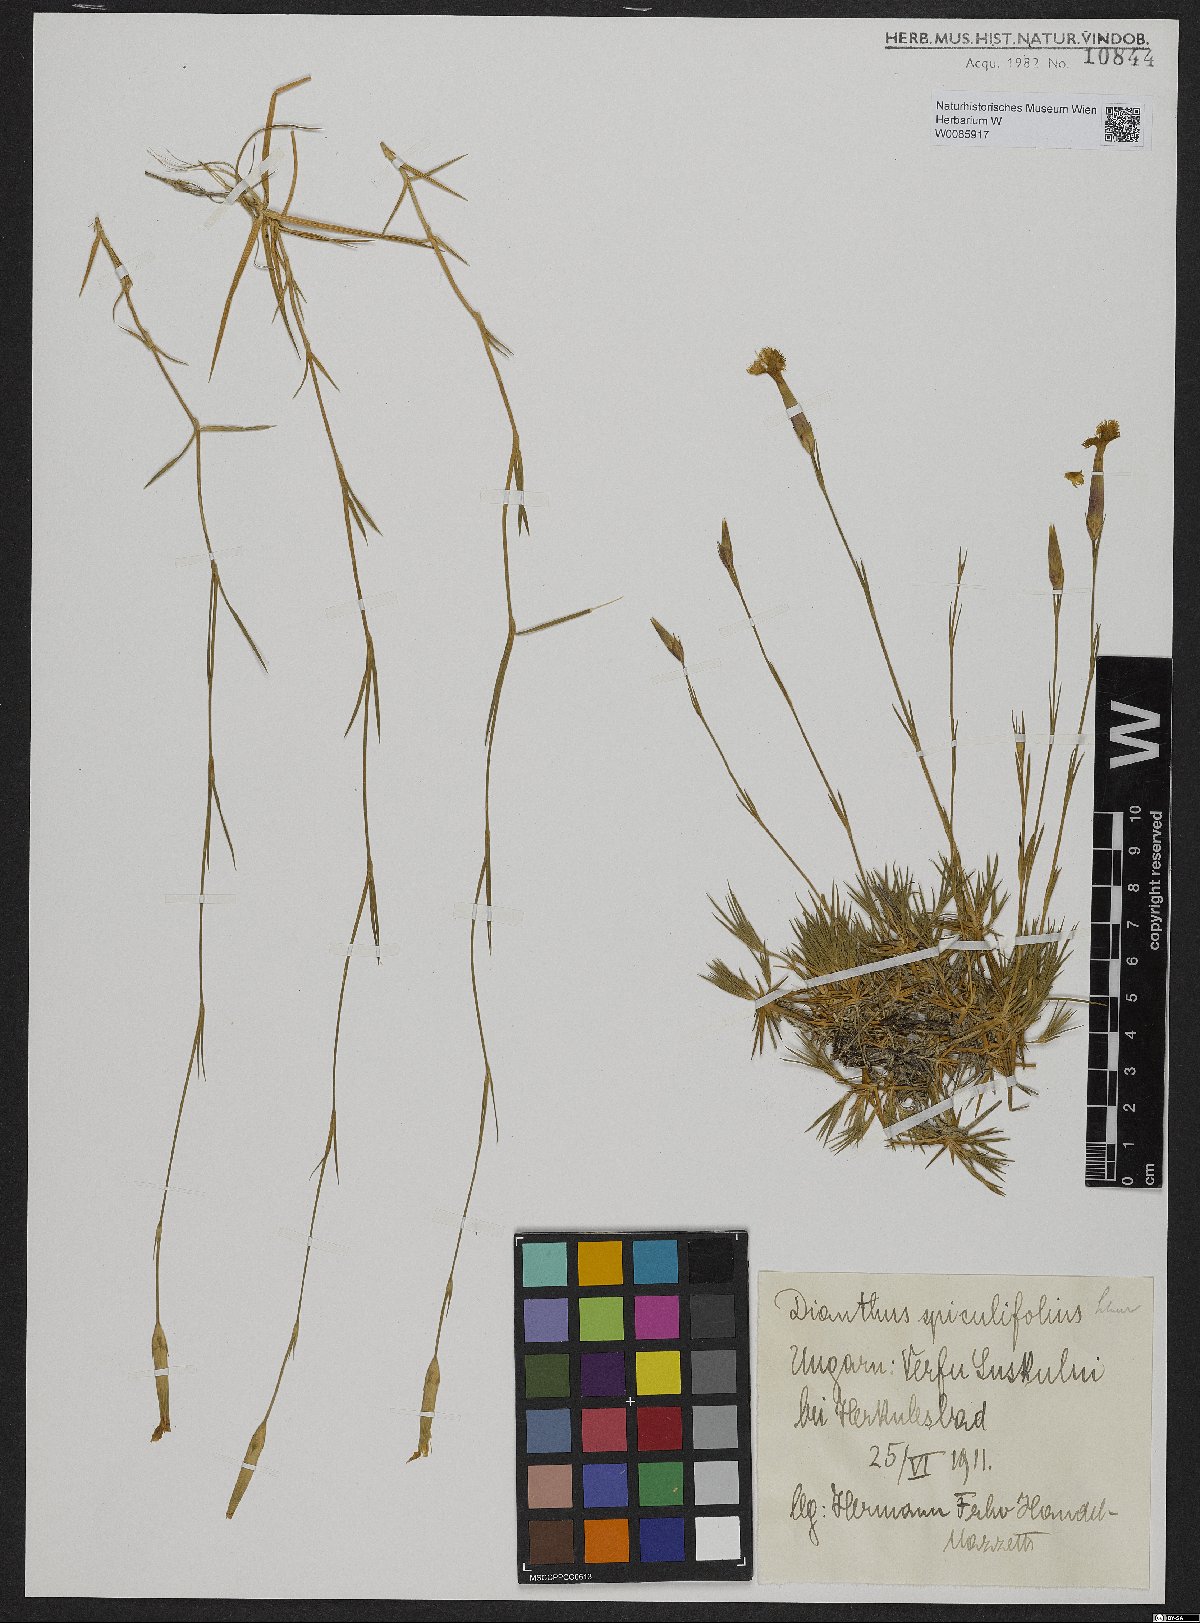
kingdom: Plantae
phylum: Tracheophyta
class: Magnoliopsida
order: Caryophyllales
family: Caryophyllaceae
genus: Dianthus
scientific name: Dianthus spiculifolius
